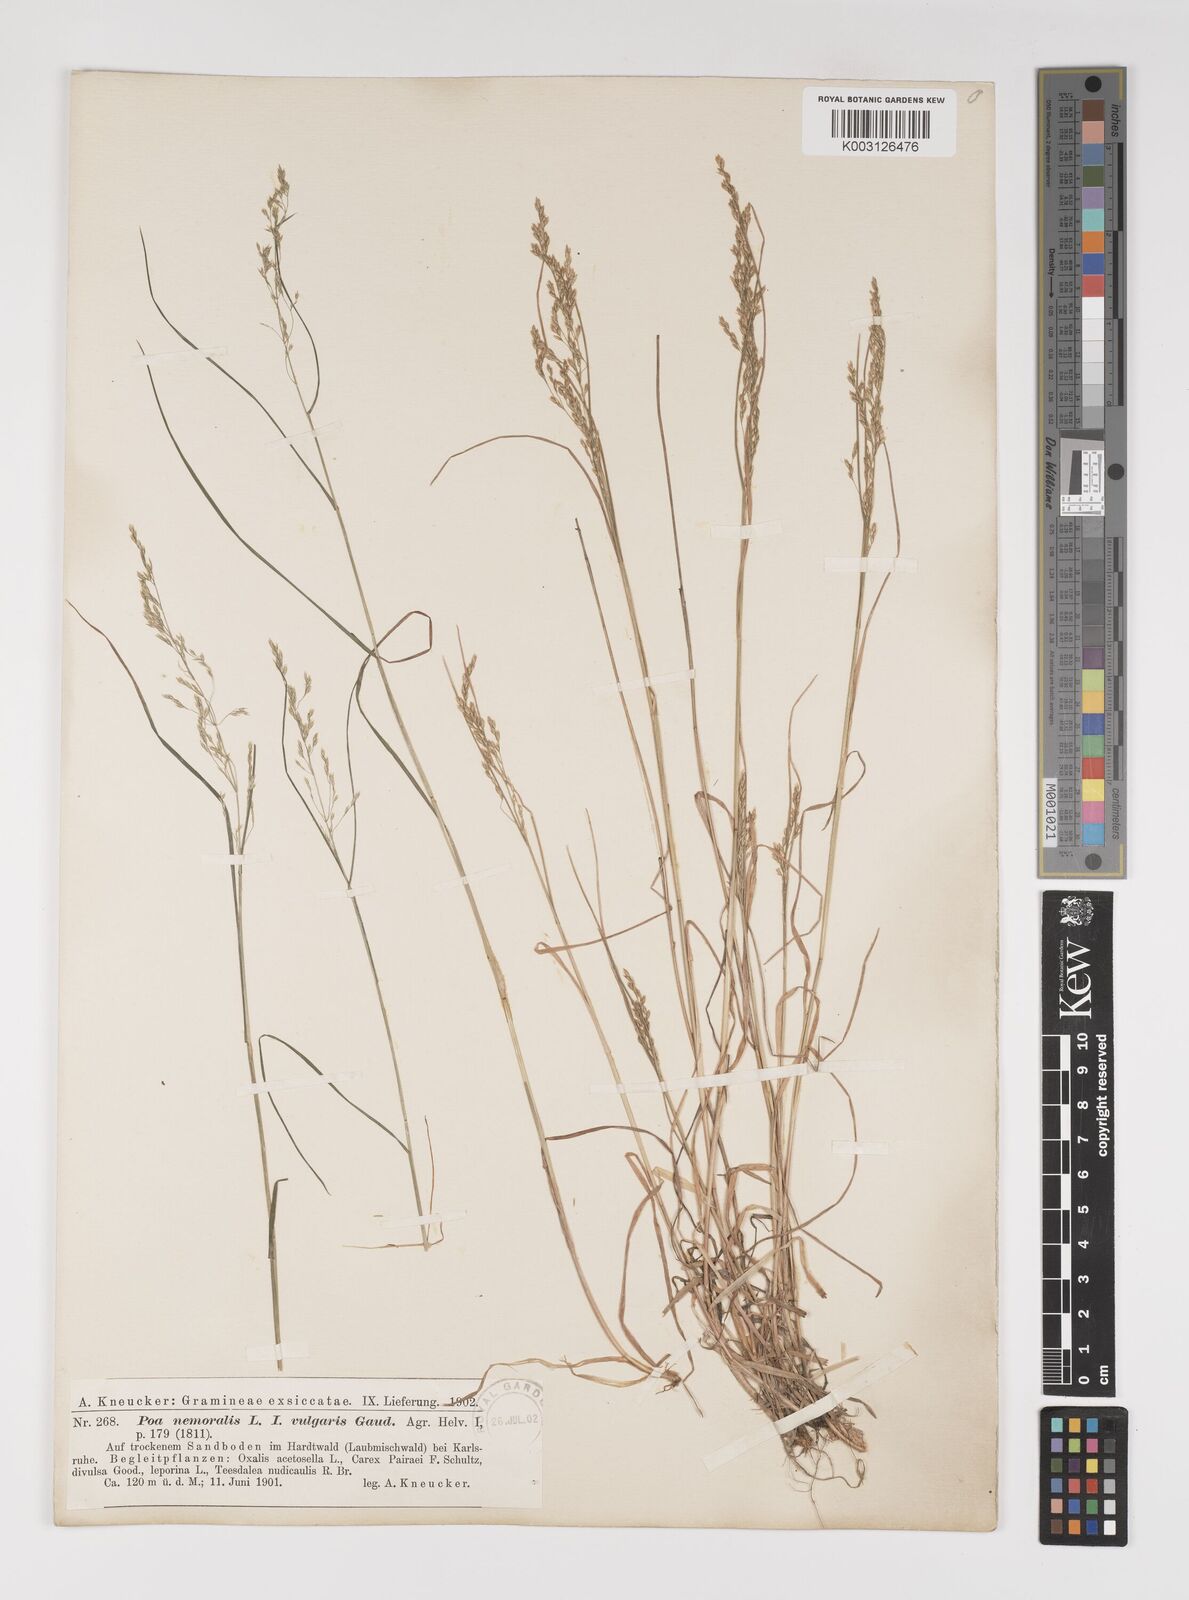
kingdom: Plantae
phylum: Tracheophyta
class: Liliopsida
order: Poales
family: Poaceae
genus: Poa
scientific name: Poa nemoralis
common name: Wood bluegrass
